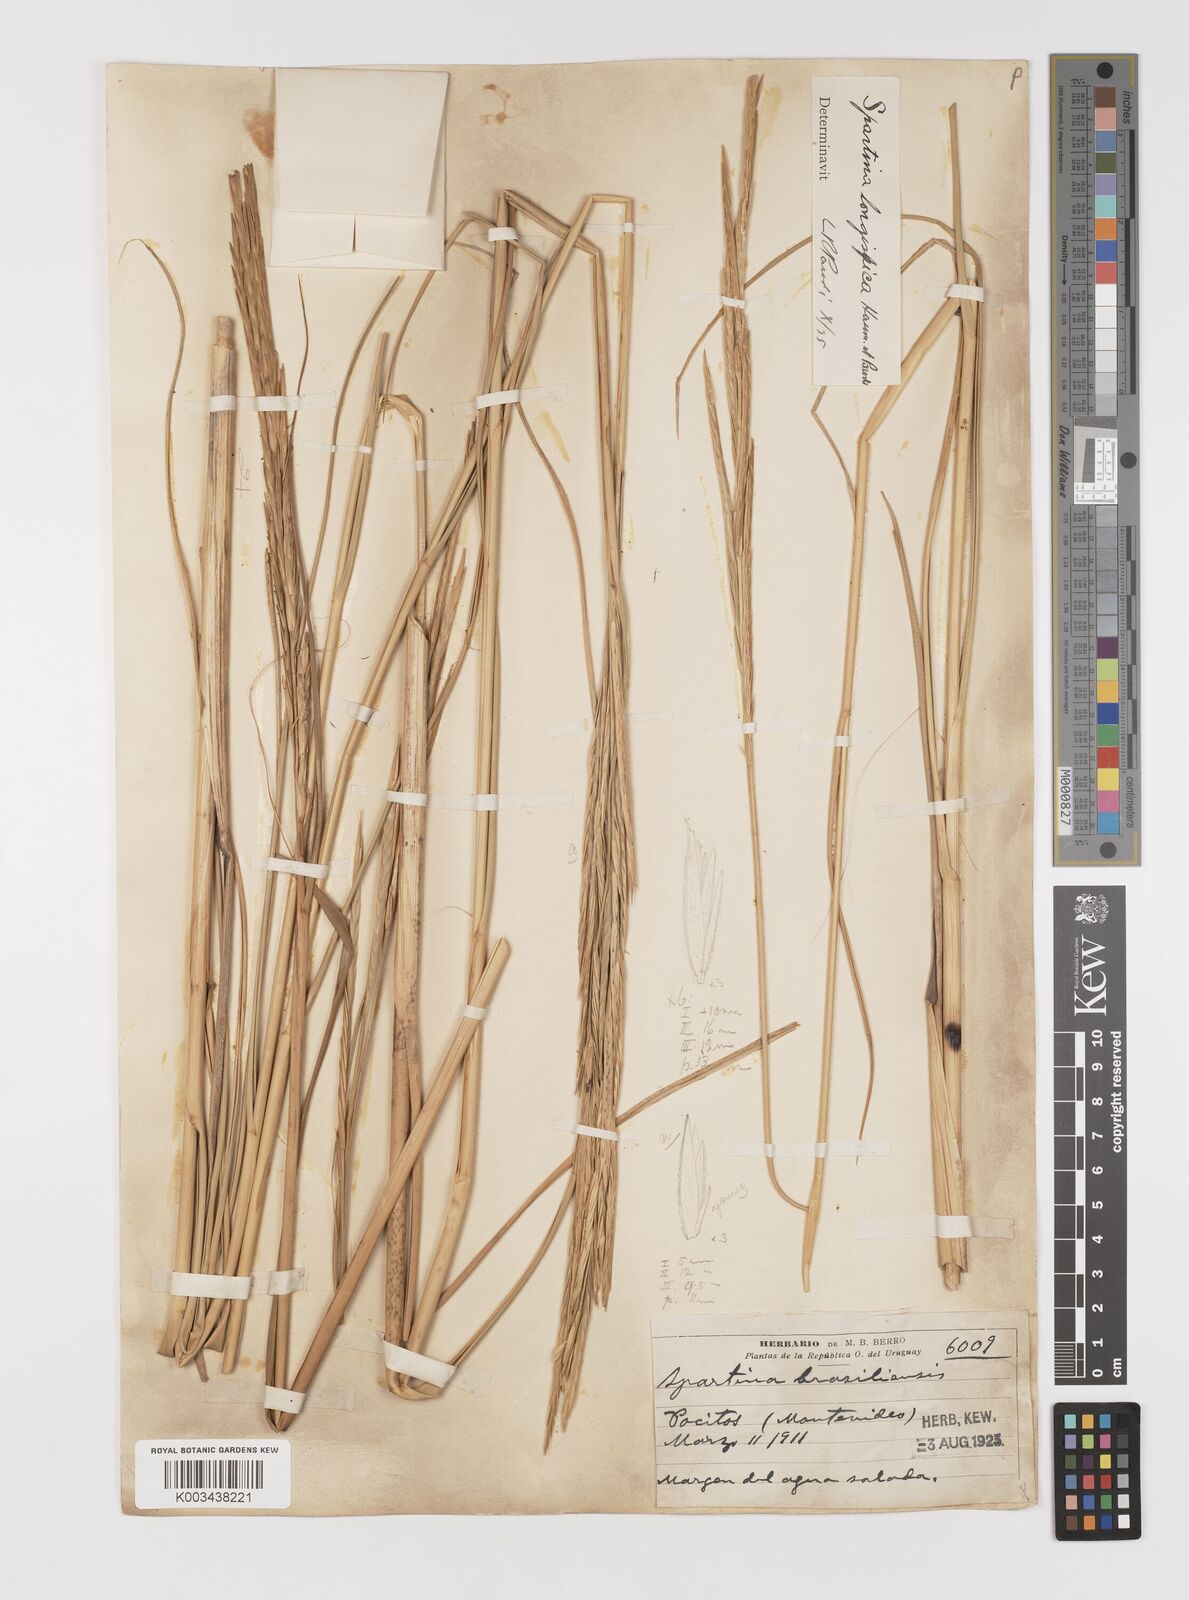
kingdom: Plantae
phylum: Tracheophyta
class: Liliopsida
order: Poales
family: Poaceae
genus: Sporobolus
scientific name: Sporobolus alterniflorus
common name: Atlantic cordgrass
